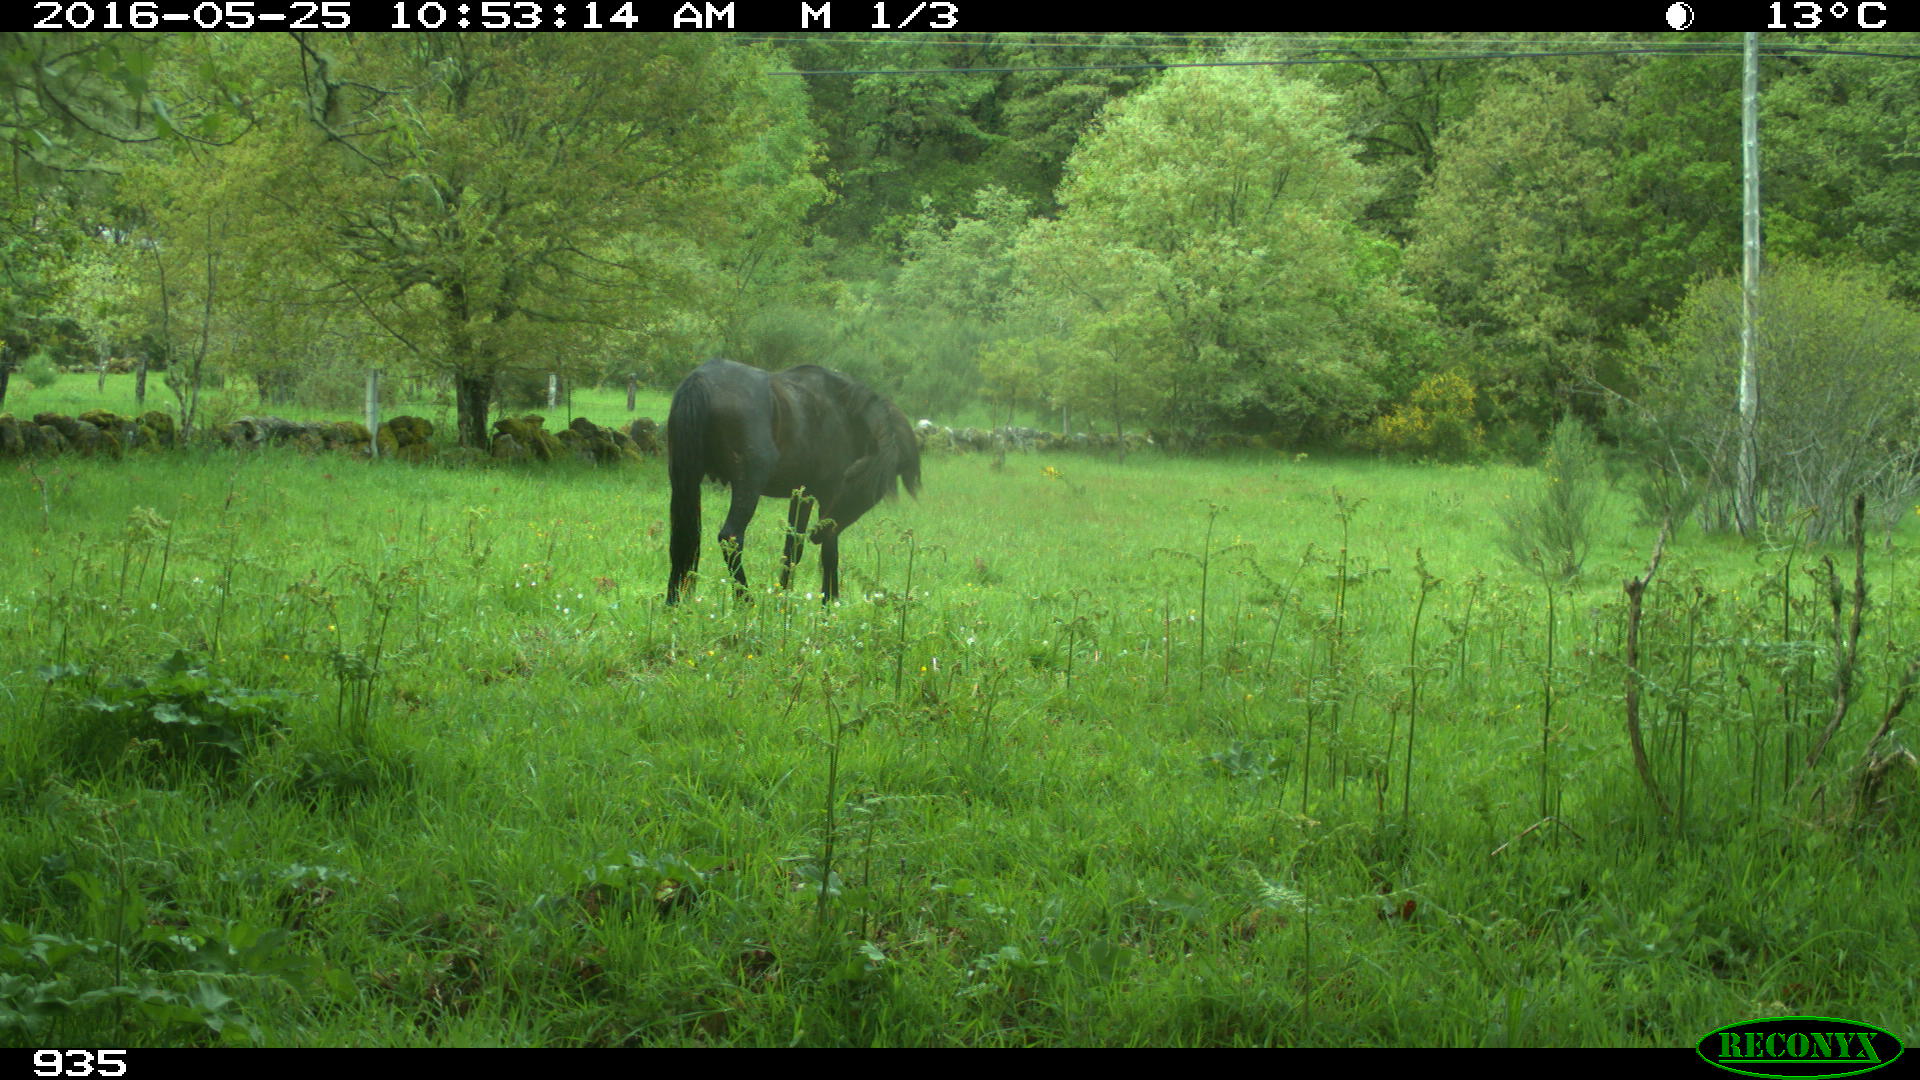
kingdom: Animalia
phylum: Chordata
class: Mammalia
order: Perissodactyla
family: Equidae
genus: Equus
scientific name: Equus caballus
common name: Horse
